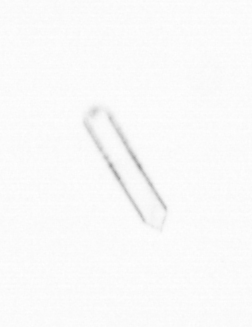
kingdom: Chromista
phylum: Ochrophyta
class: Bacillariophyceae
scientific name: Bacillariophyceae
